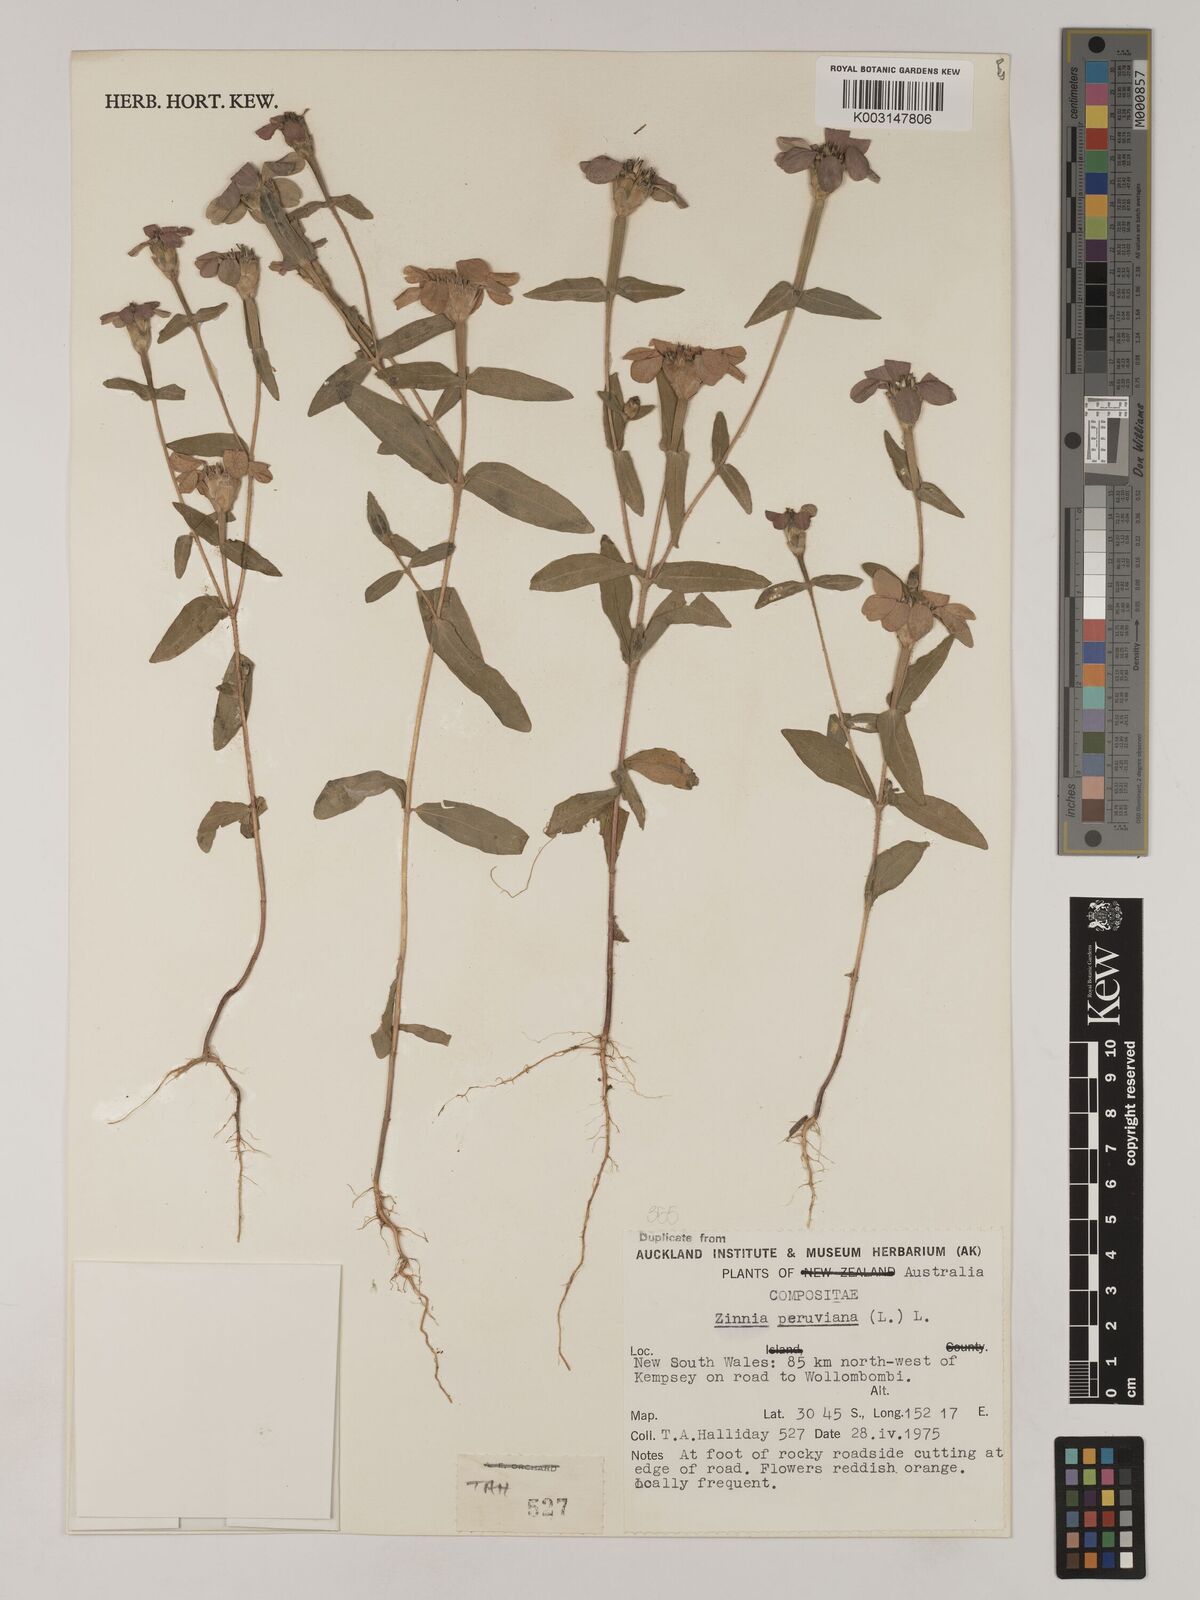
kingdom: Plantae
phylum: Tracheophyta
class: Magnoliopsida
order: Asterales
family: Asteraceae
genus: Zinnia
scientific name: Zinnia peruviana
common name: Peruvian zinnia
